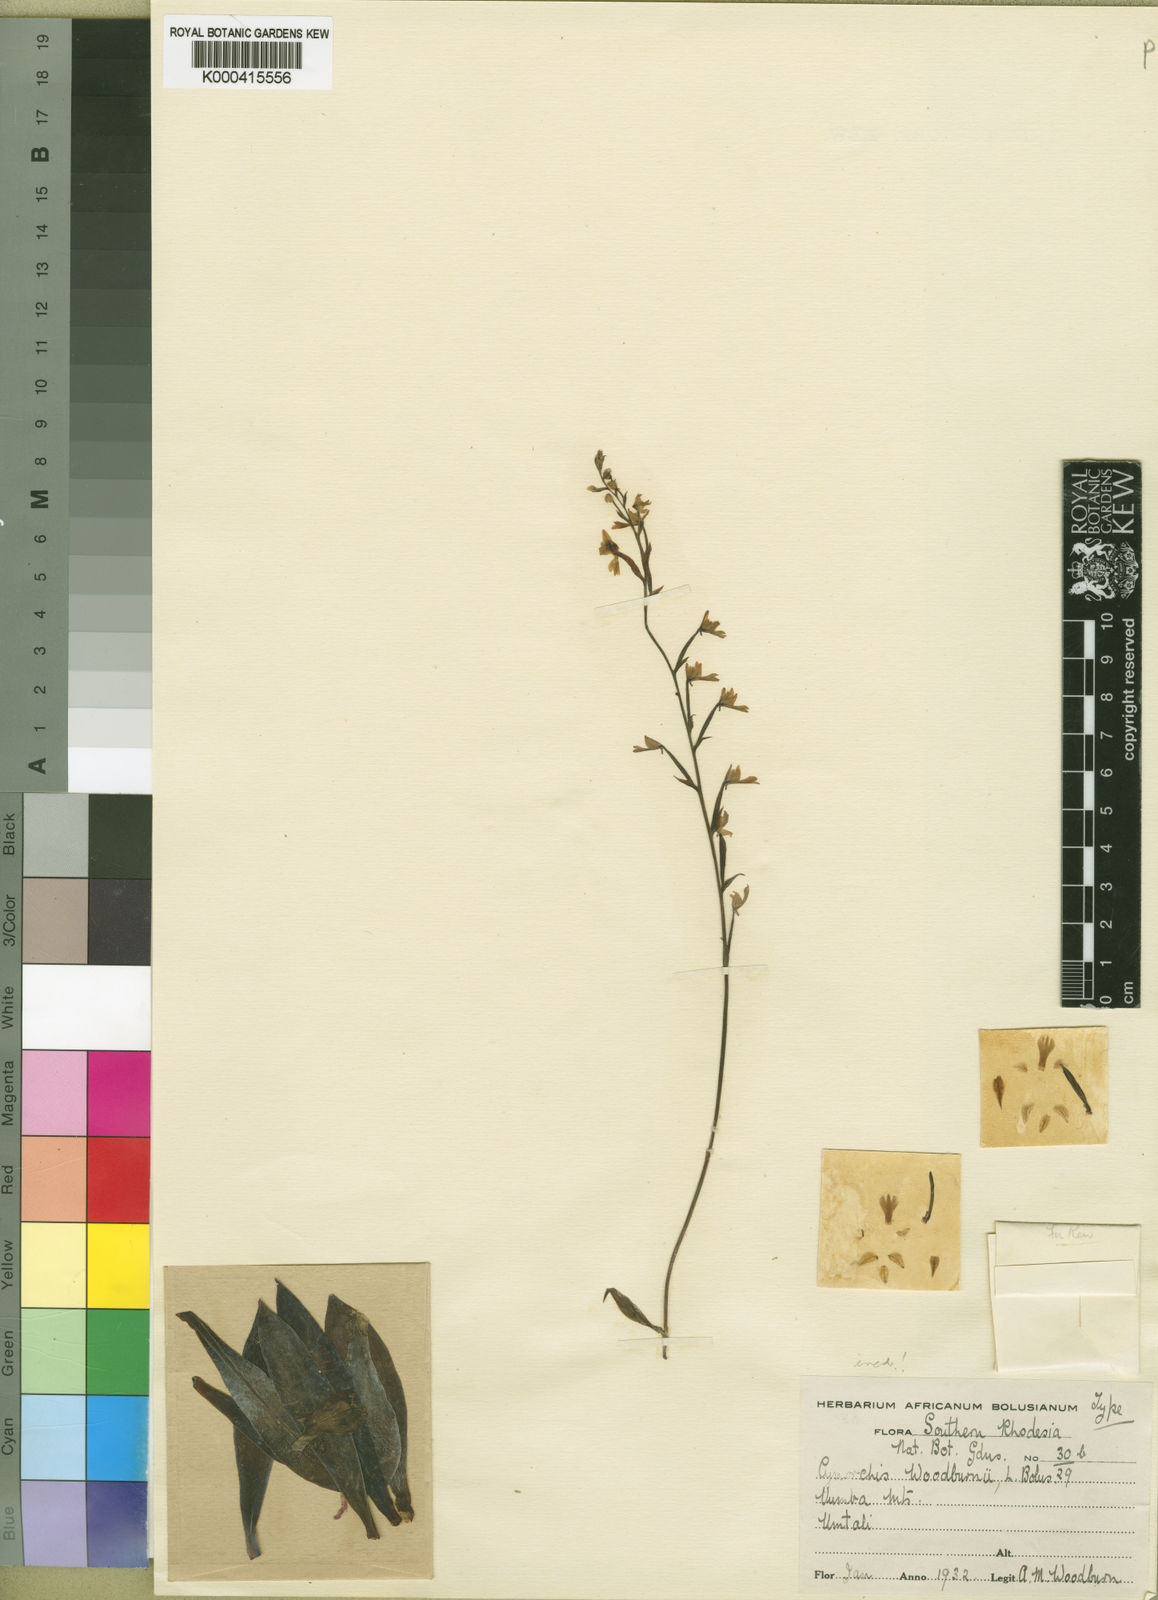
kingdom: Plantae
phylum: Tracheophyta
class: Liliopsida
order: Asparagales
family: Orchidaceae
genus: Stenoglottis
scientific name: Stenoglottis woodii
